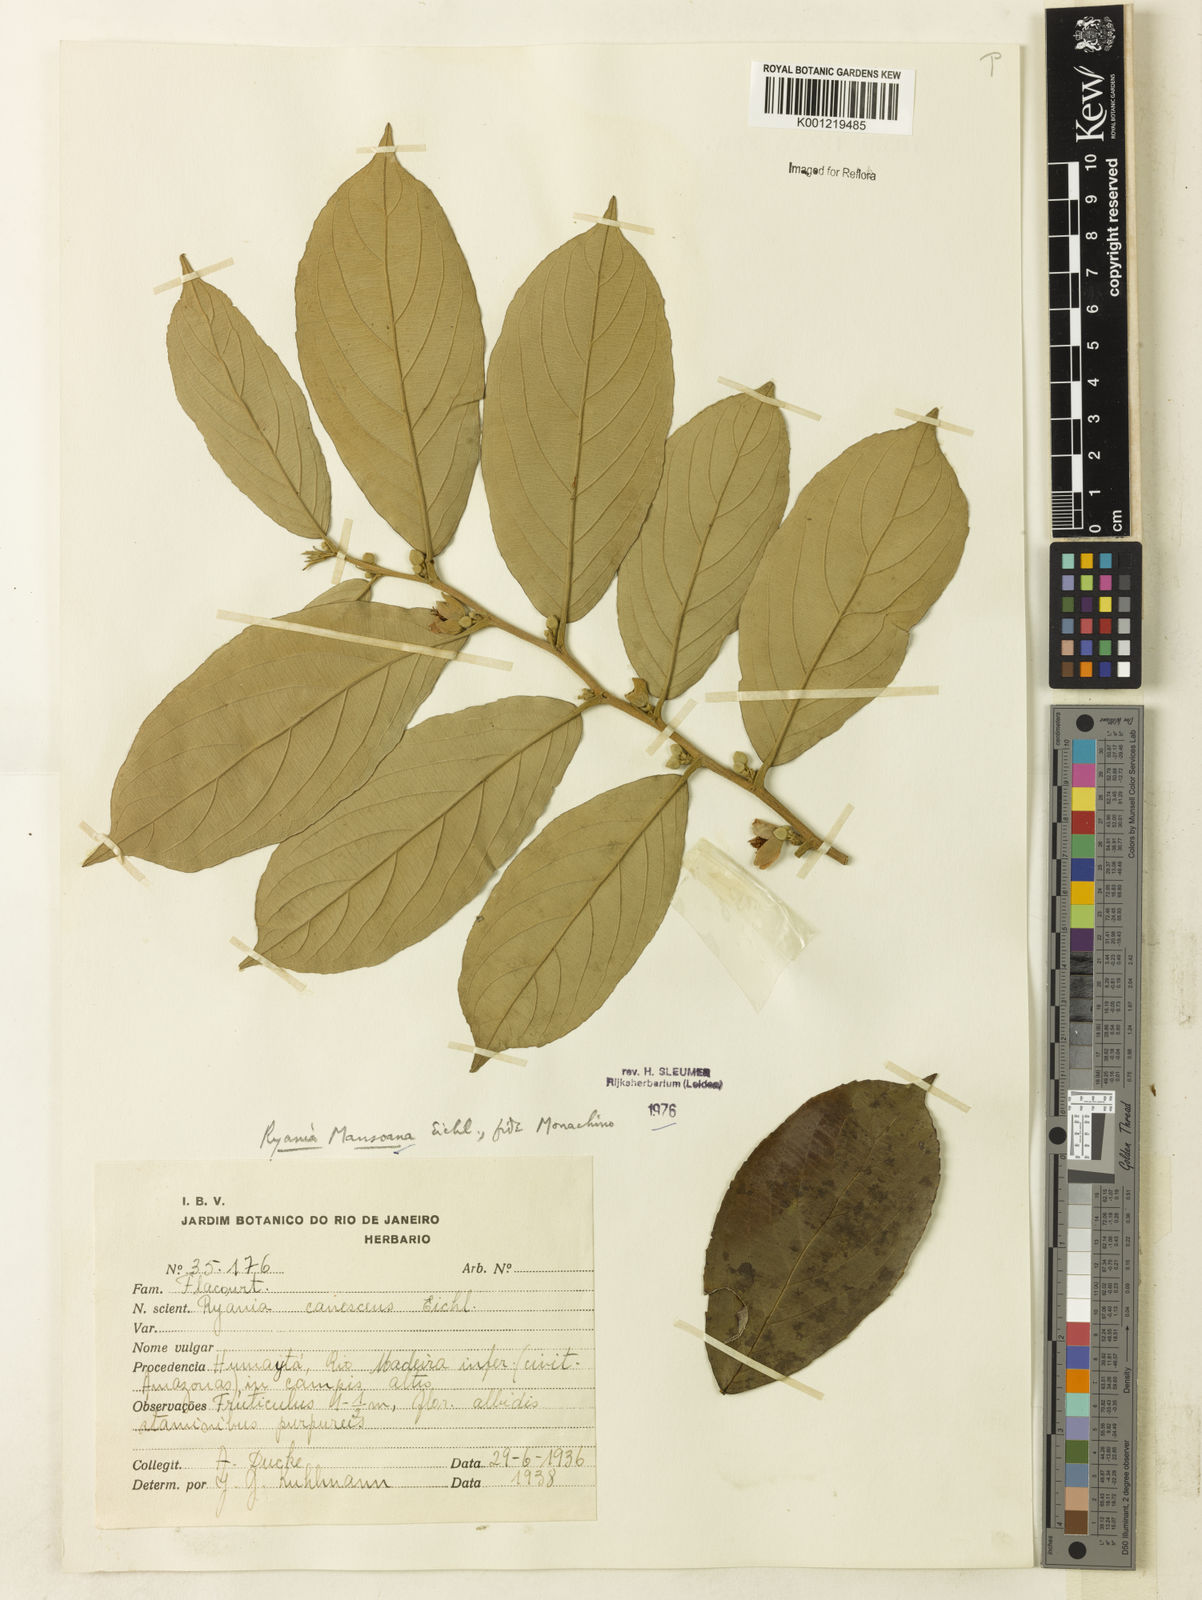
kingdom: Plantae
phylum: Tracheophyta
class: Magnoliopsida
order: Malpighiales
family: Salicaceae
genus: Ryania
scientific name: Ryania mansoana
